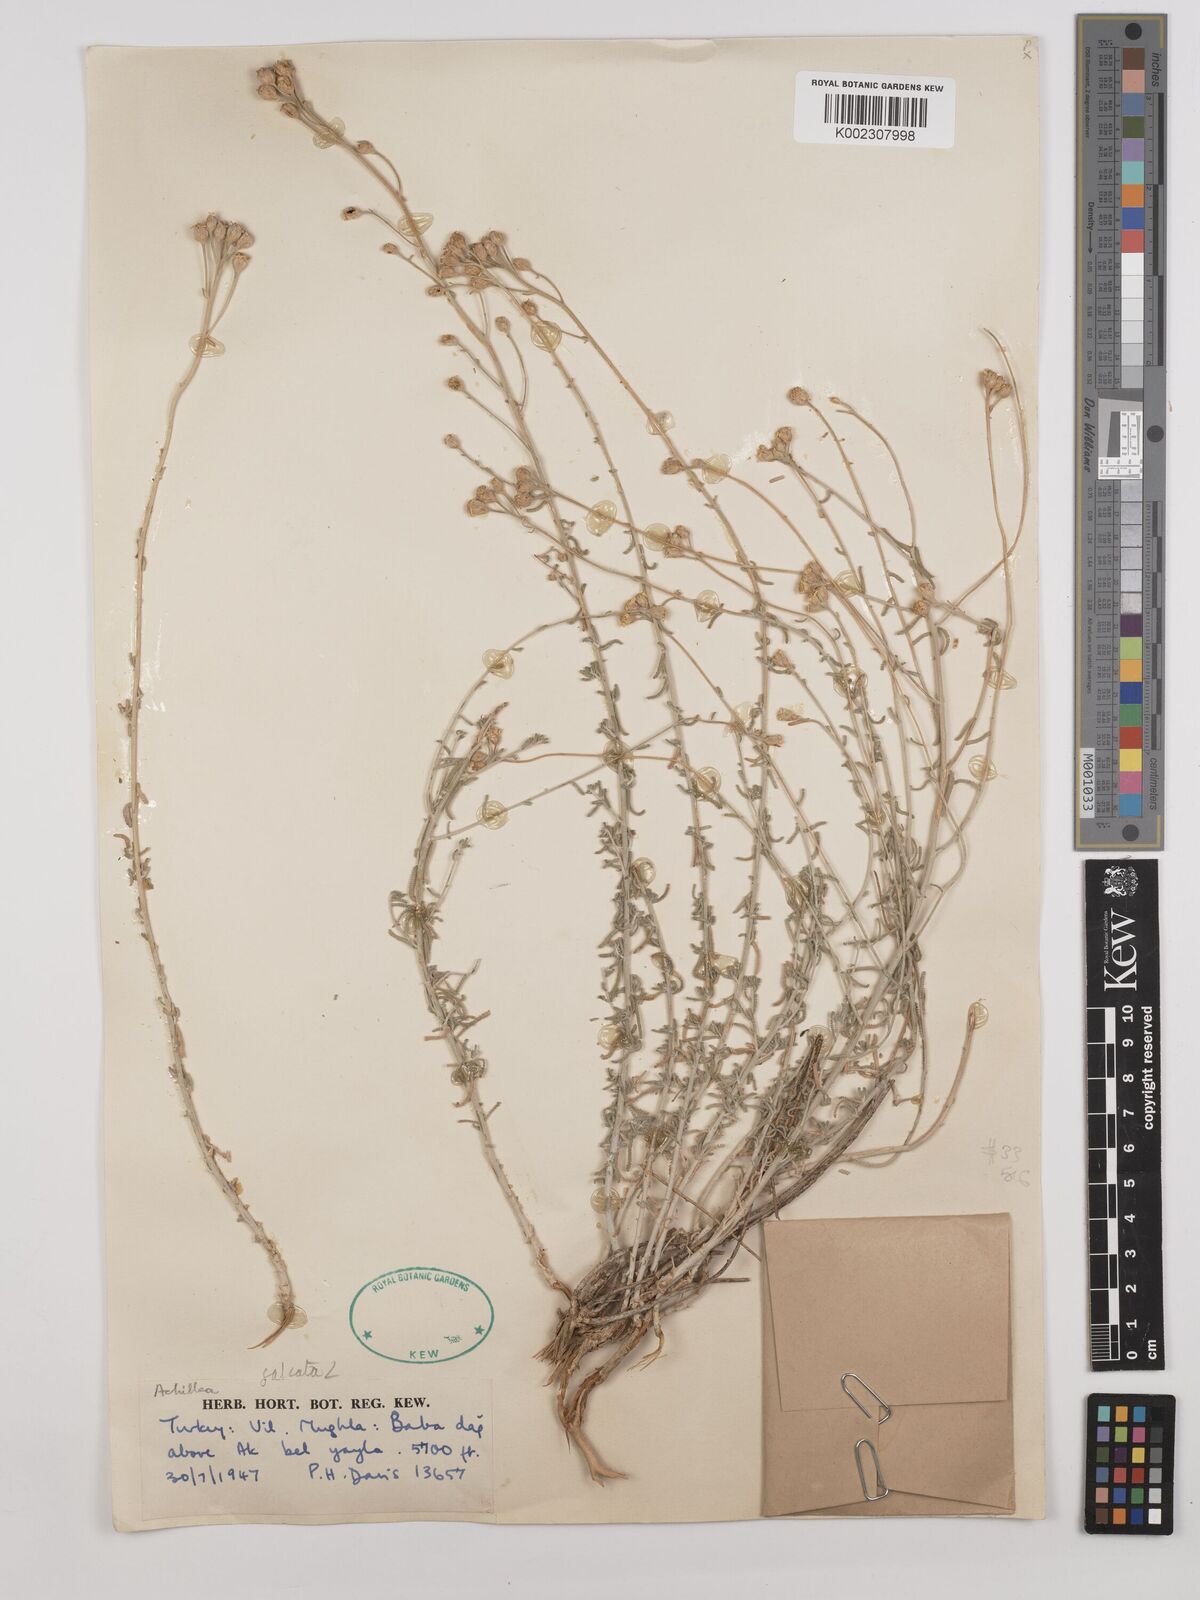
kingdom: Plantae
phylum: Tracheophyta
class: Magnoliopsida
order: Asterales
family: Asteraceae
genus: Achillea
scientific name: Achillea chamaemelifolia
